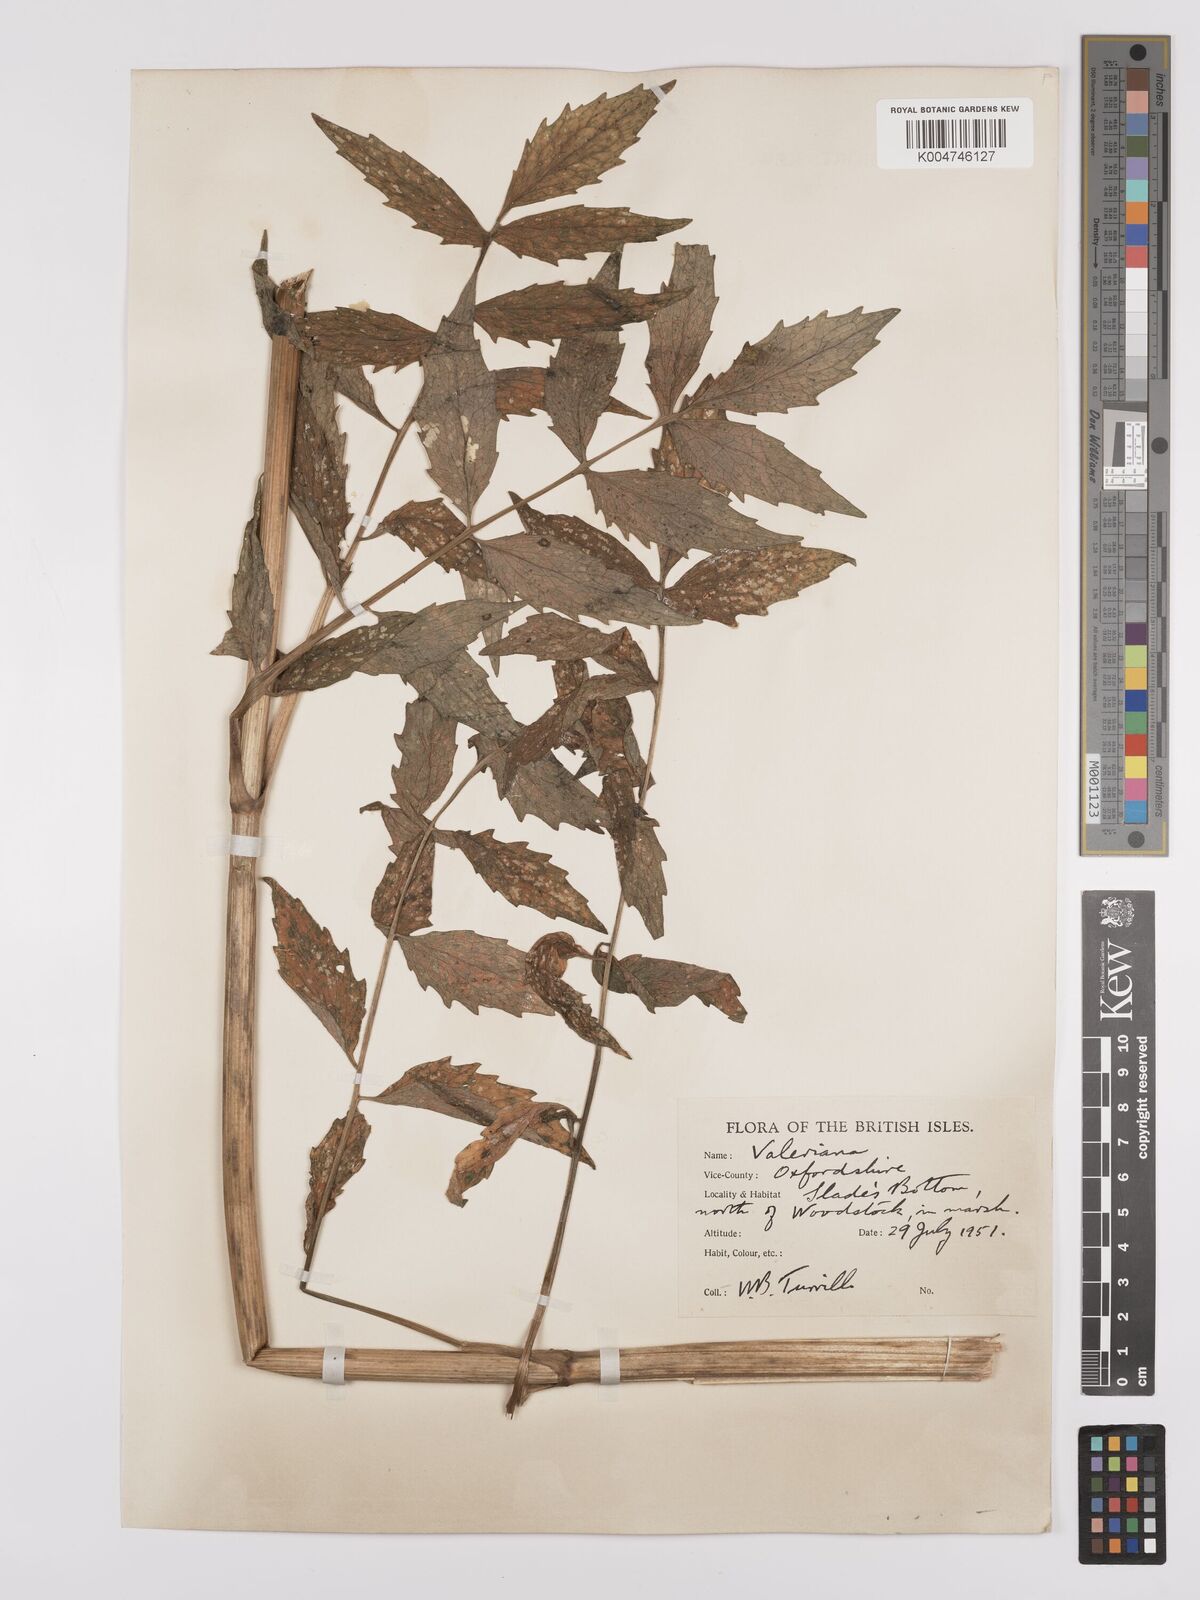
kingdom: Plantae
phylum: Tracheophyta
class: Magnoliopsida
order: Dipsacales
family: Caprifoliaceae
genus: Valeriana
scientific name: Valeriana excelsa
